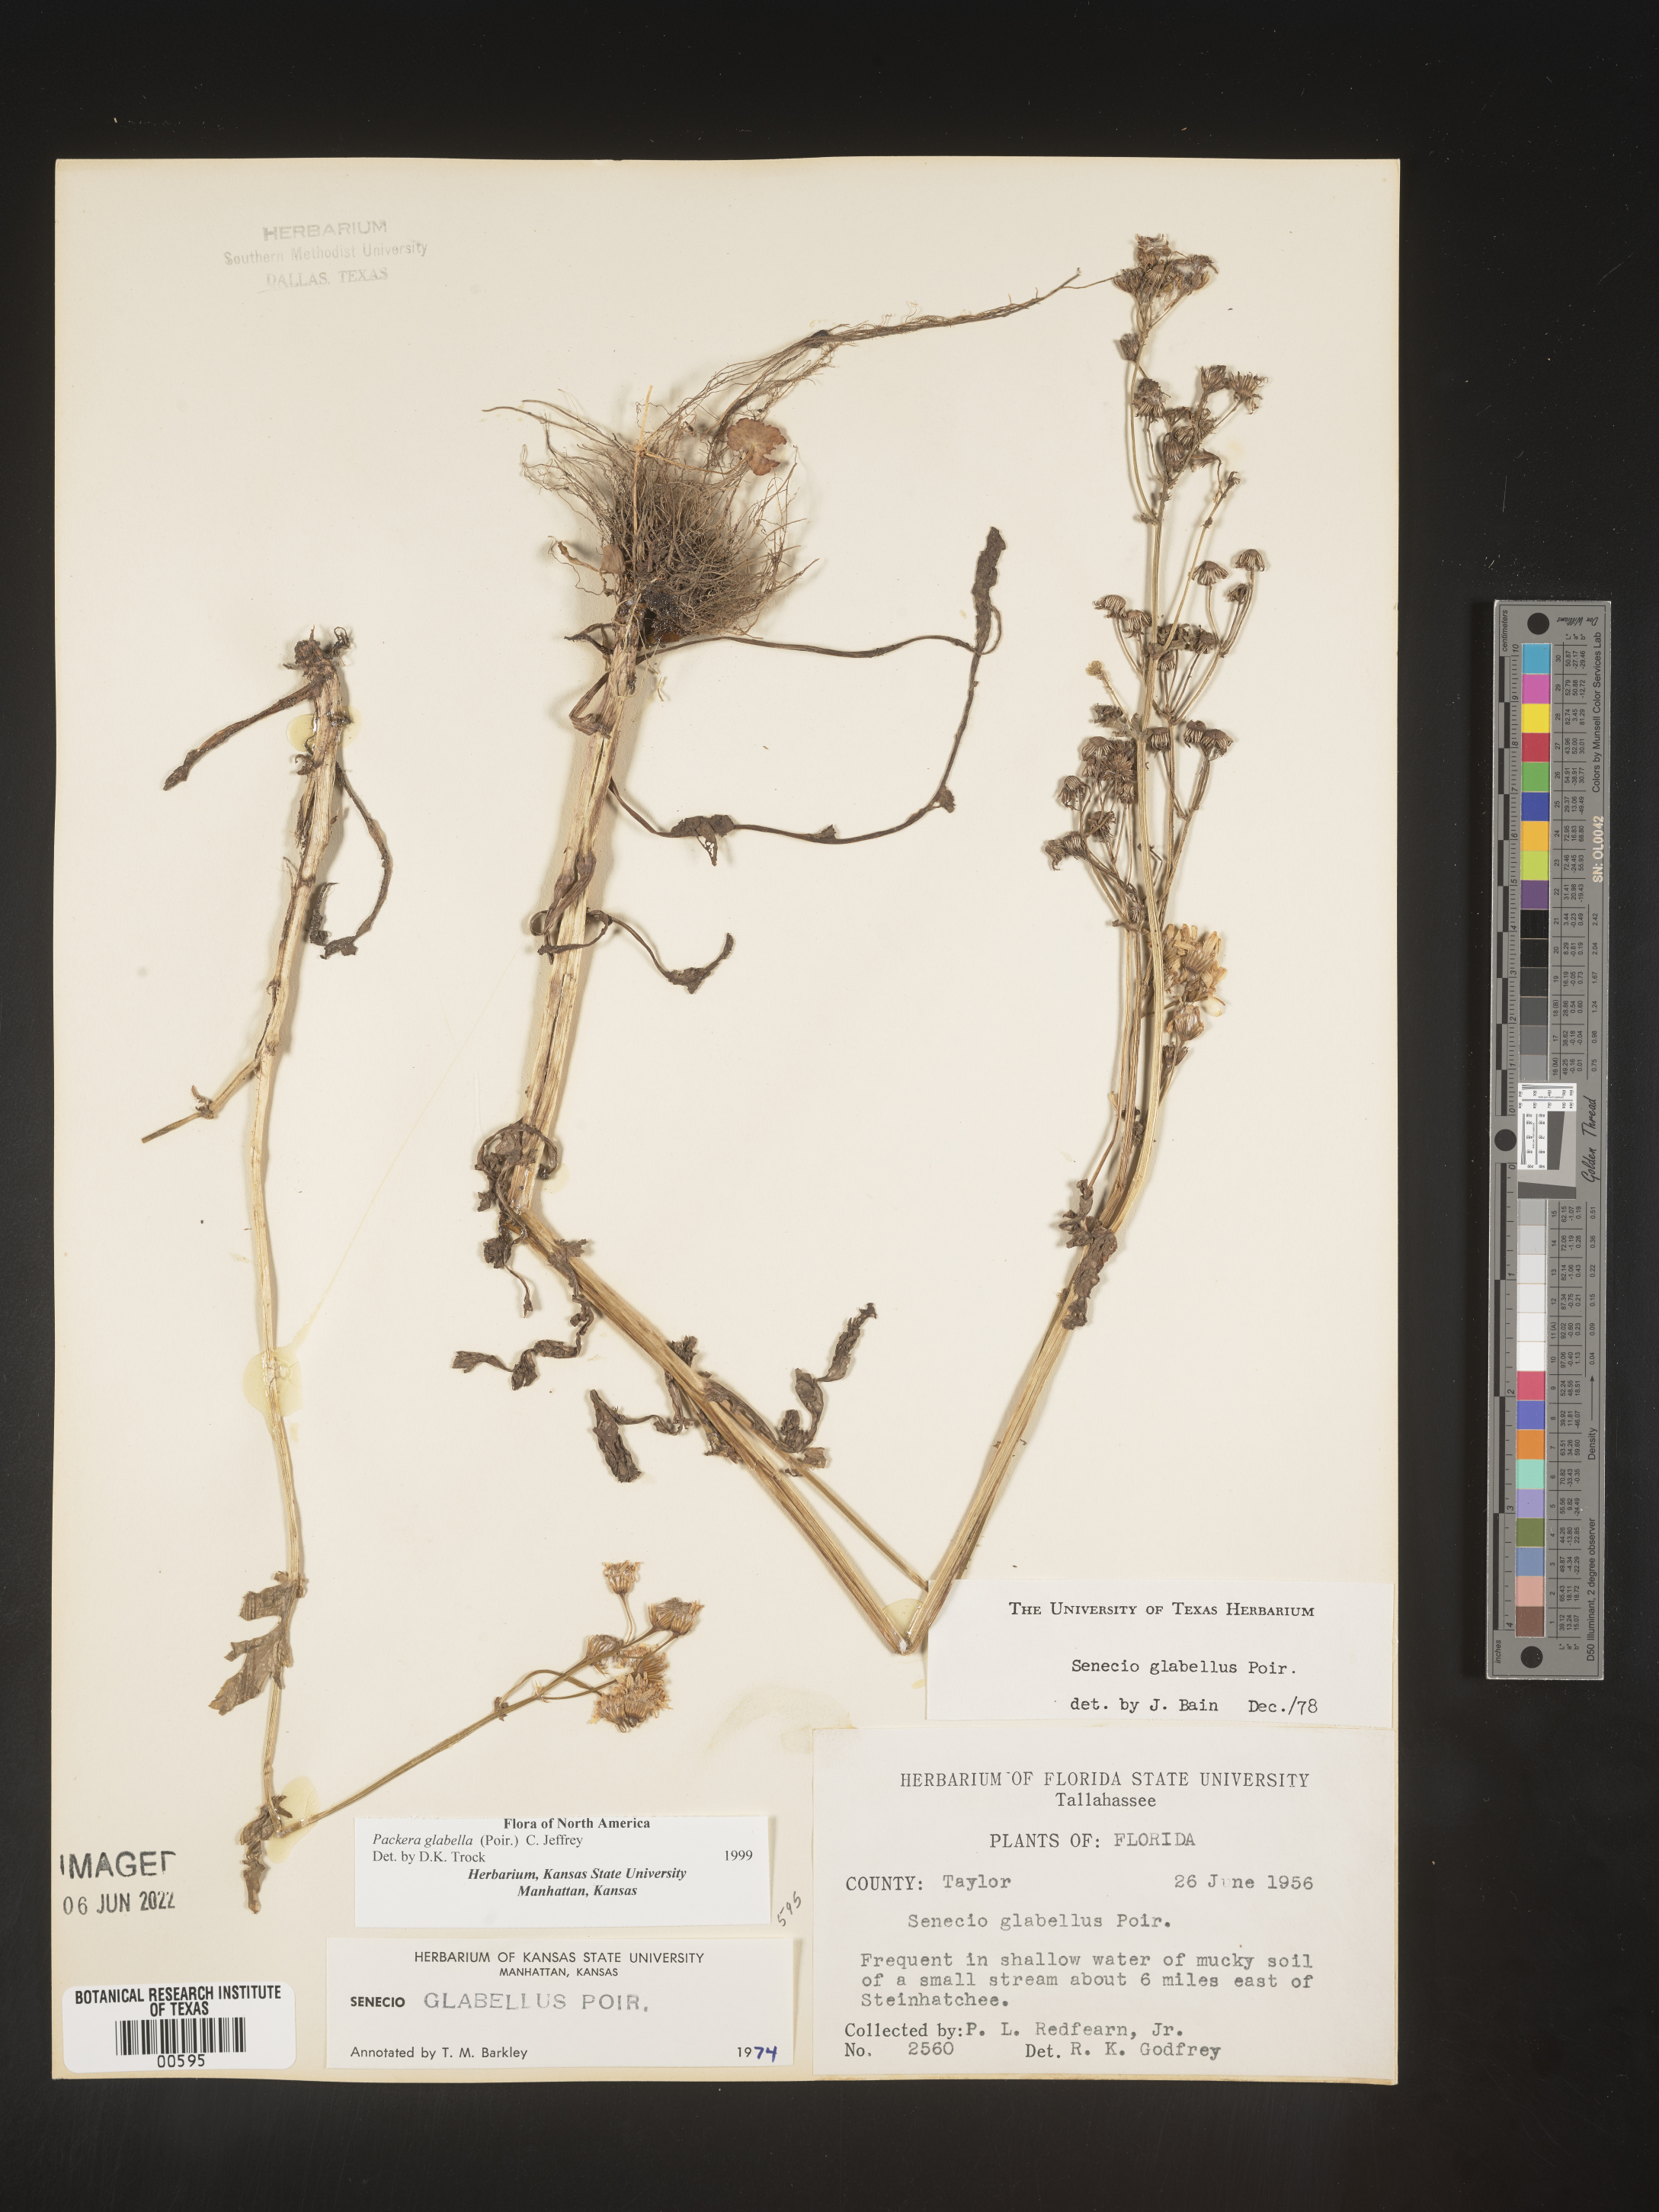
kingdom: Plantae
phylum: Tracheophyta
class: Magnoliopsida
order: Asterales
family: Asteraceae
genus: Packera
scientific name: Packera glabella
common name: Butterweed
